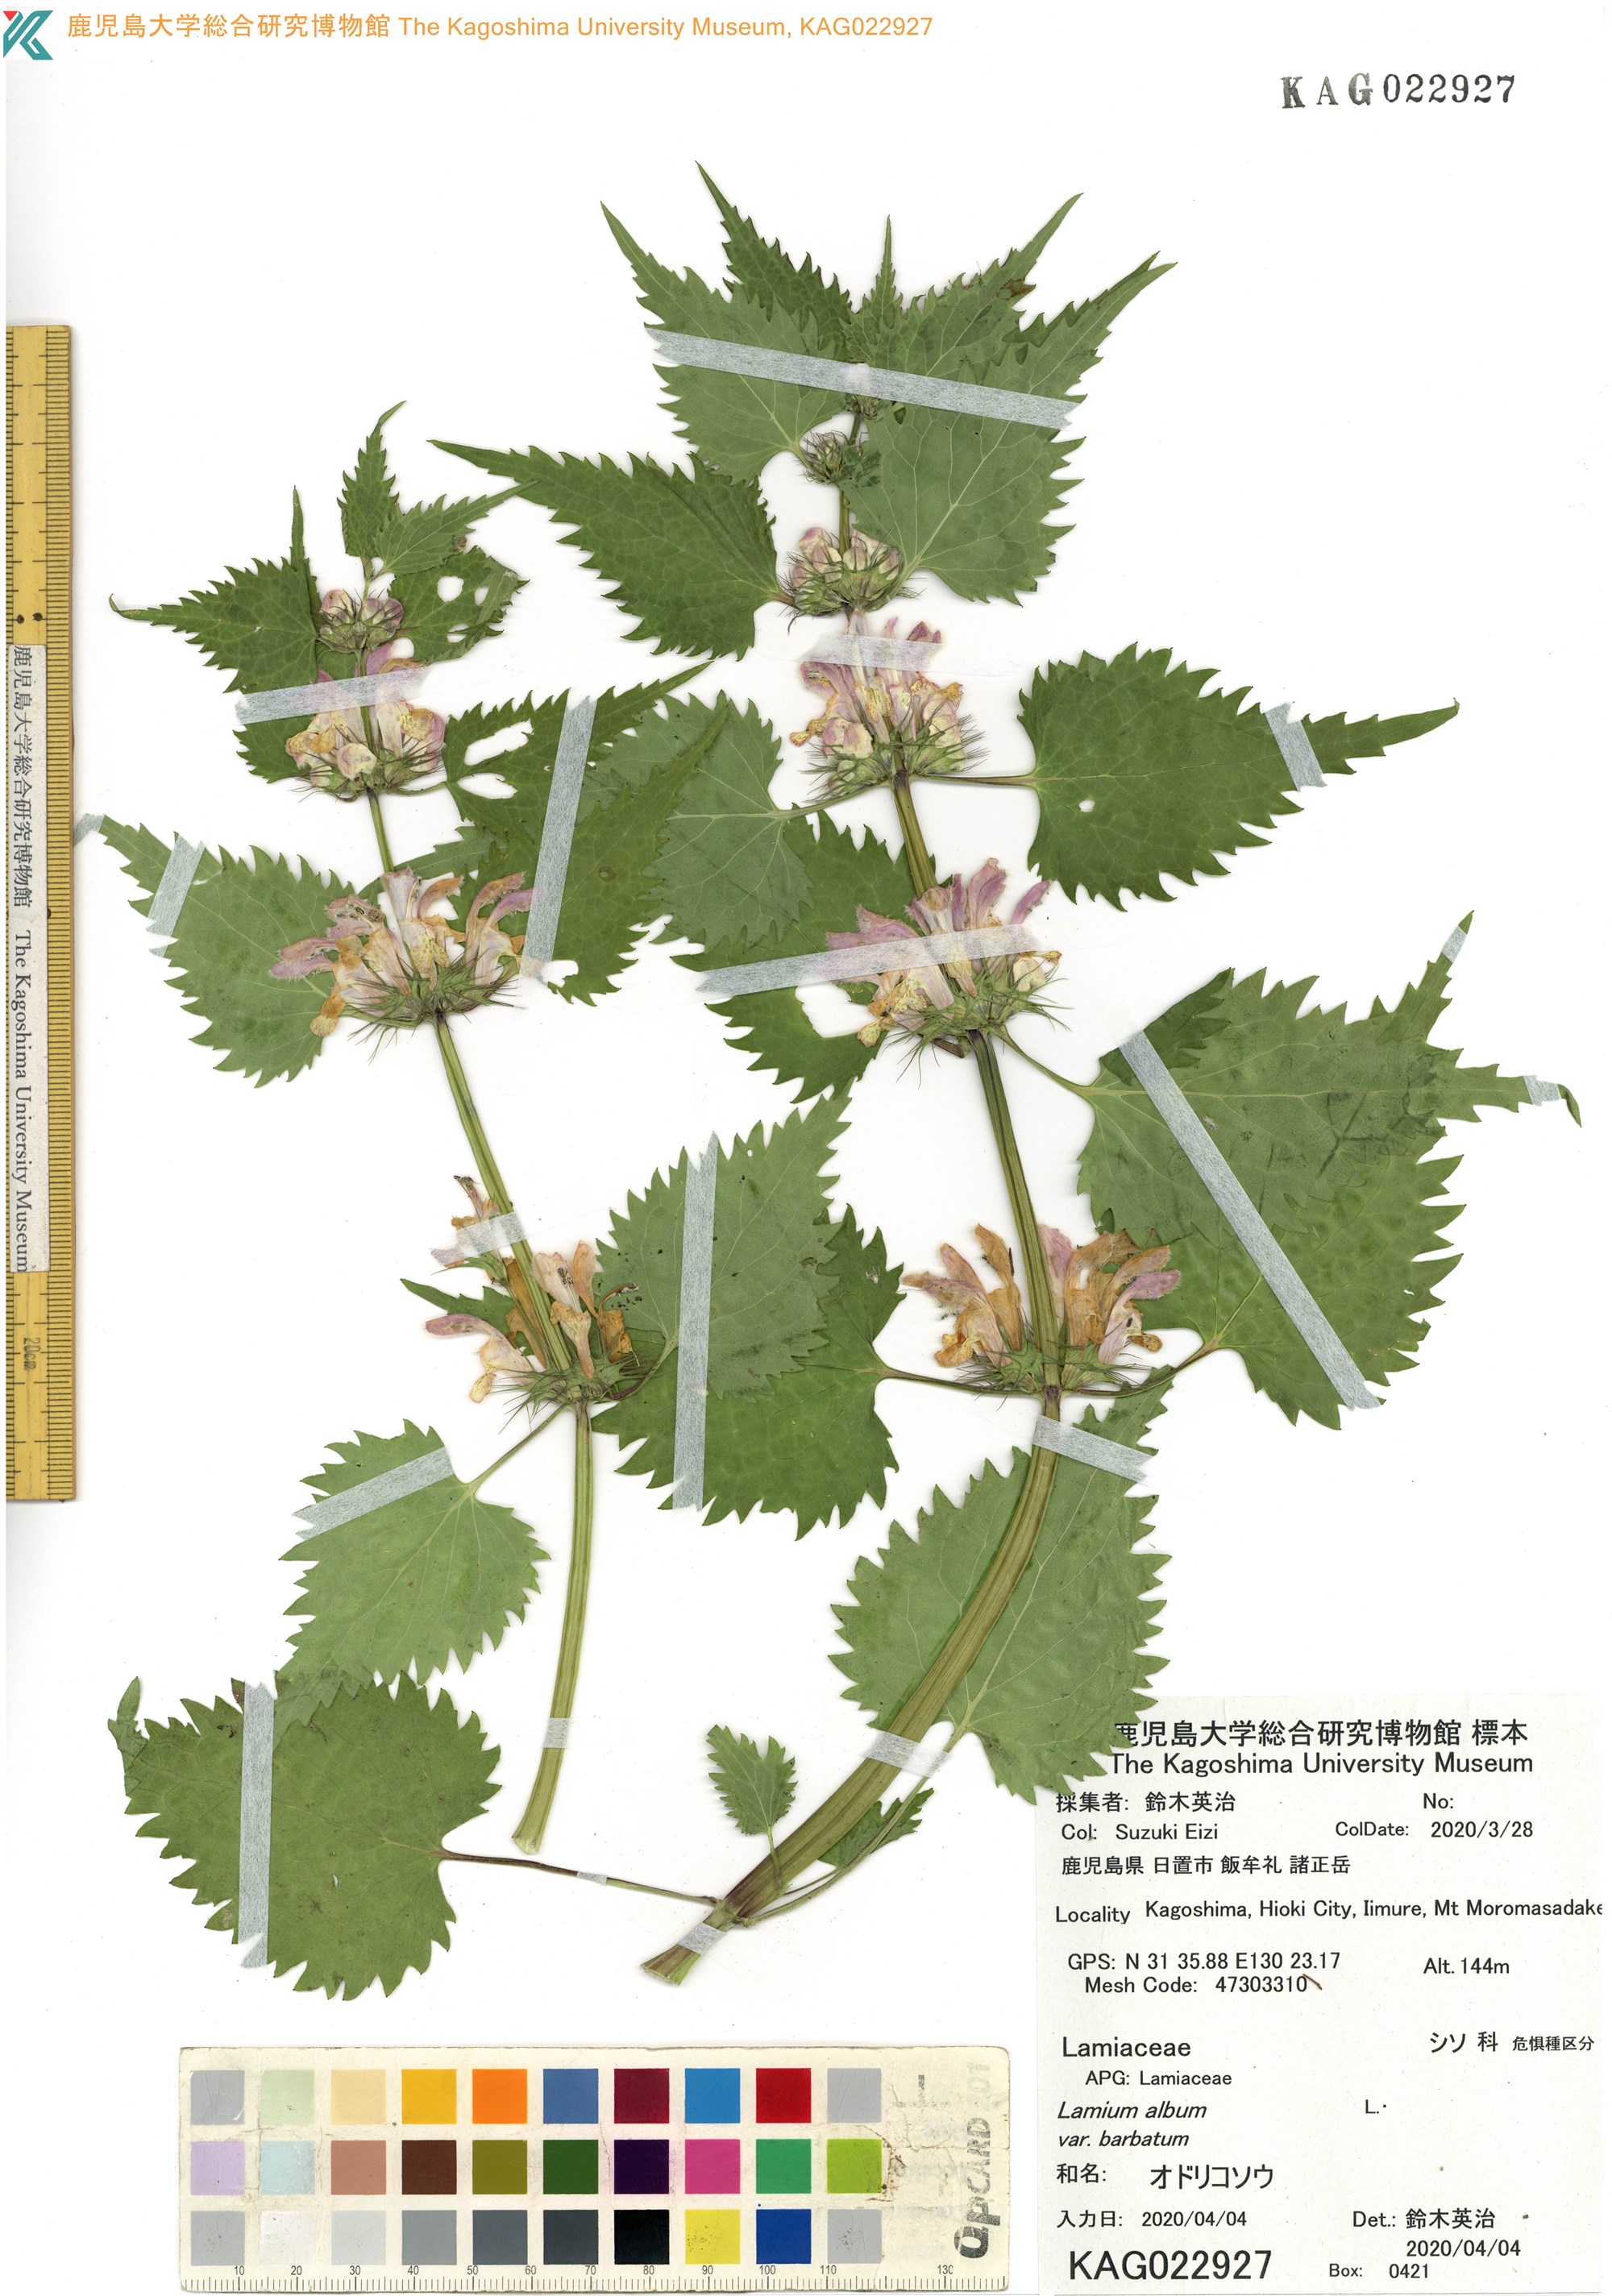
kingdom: Plantae
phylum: Tracheophyta
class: Magnoliopsida
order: Lamiales
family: Lamiaceae
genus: Lamium
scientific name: Lamium album
